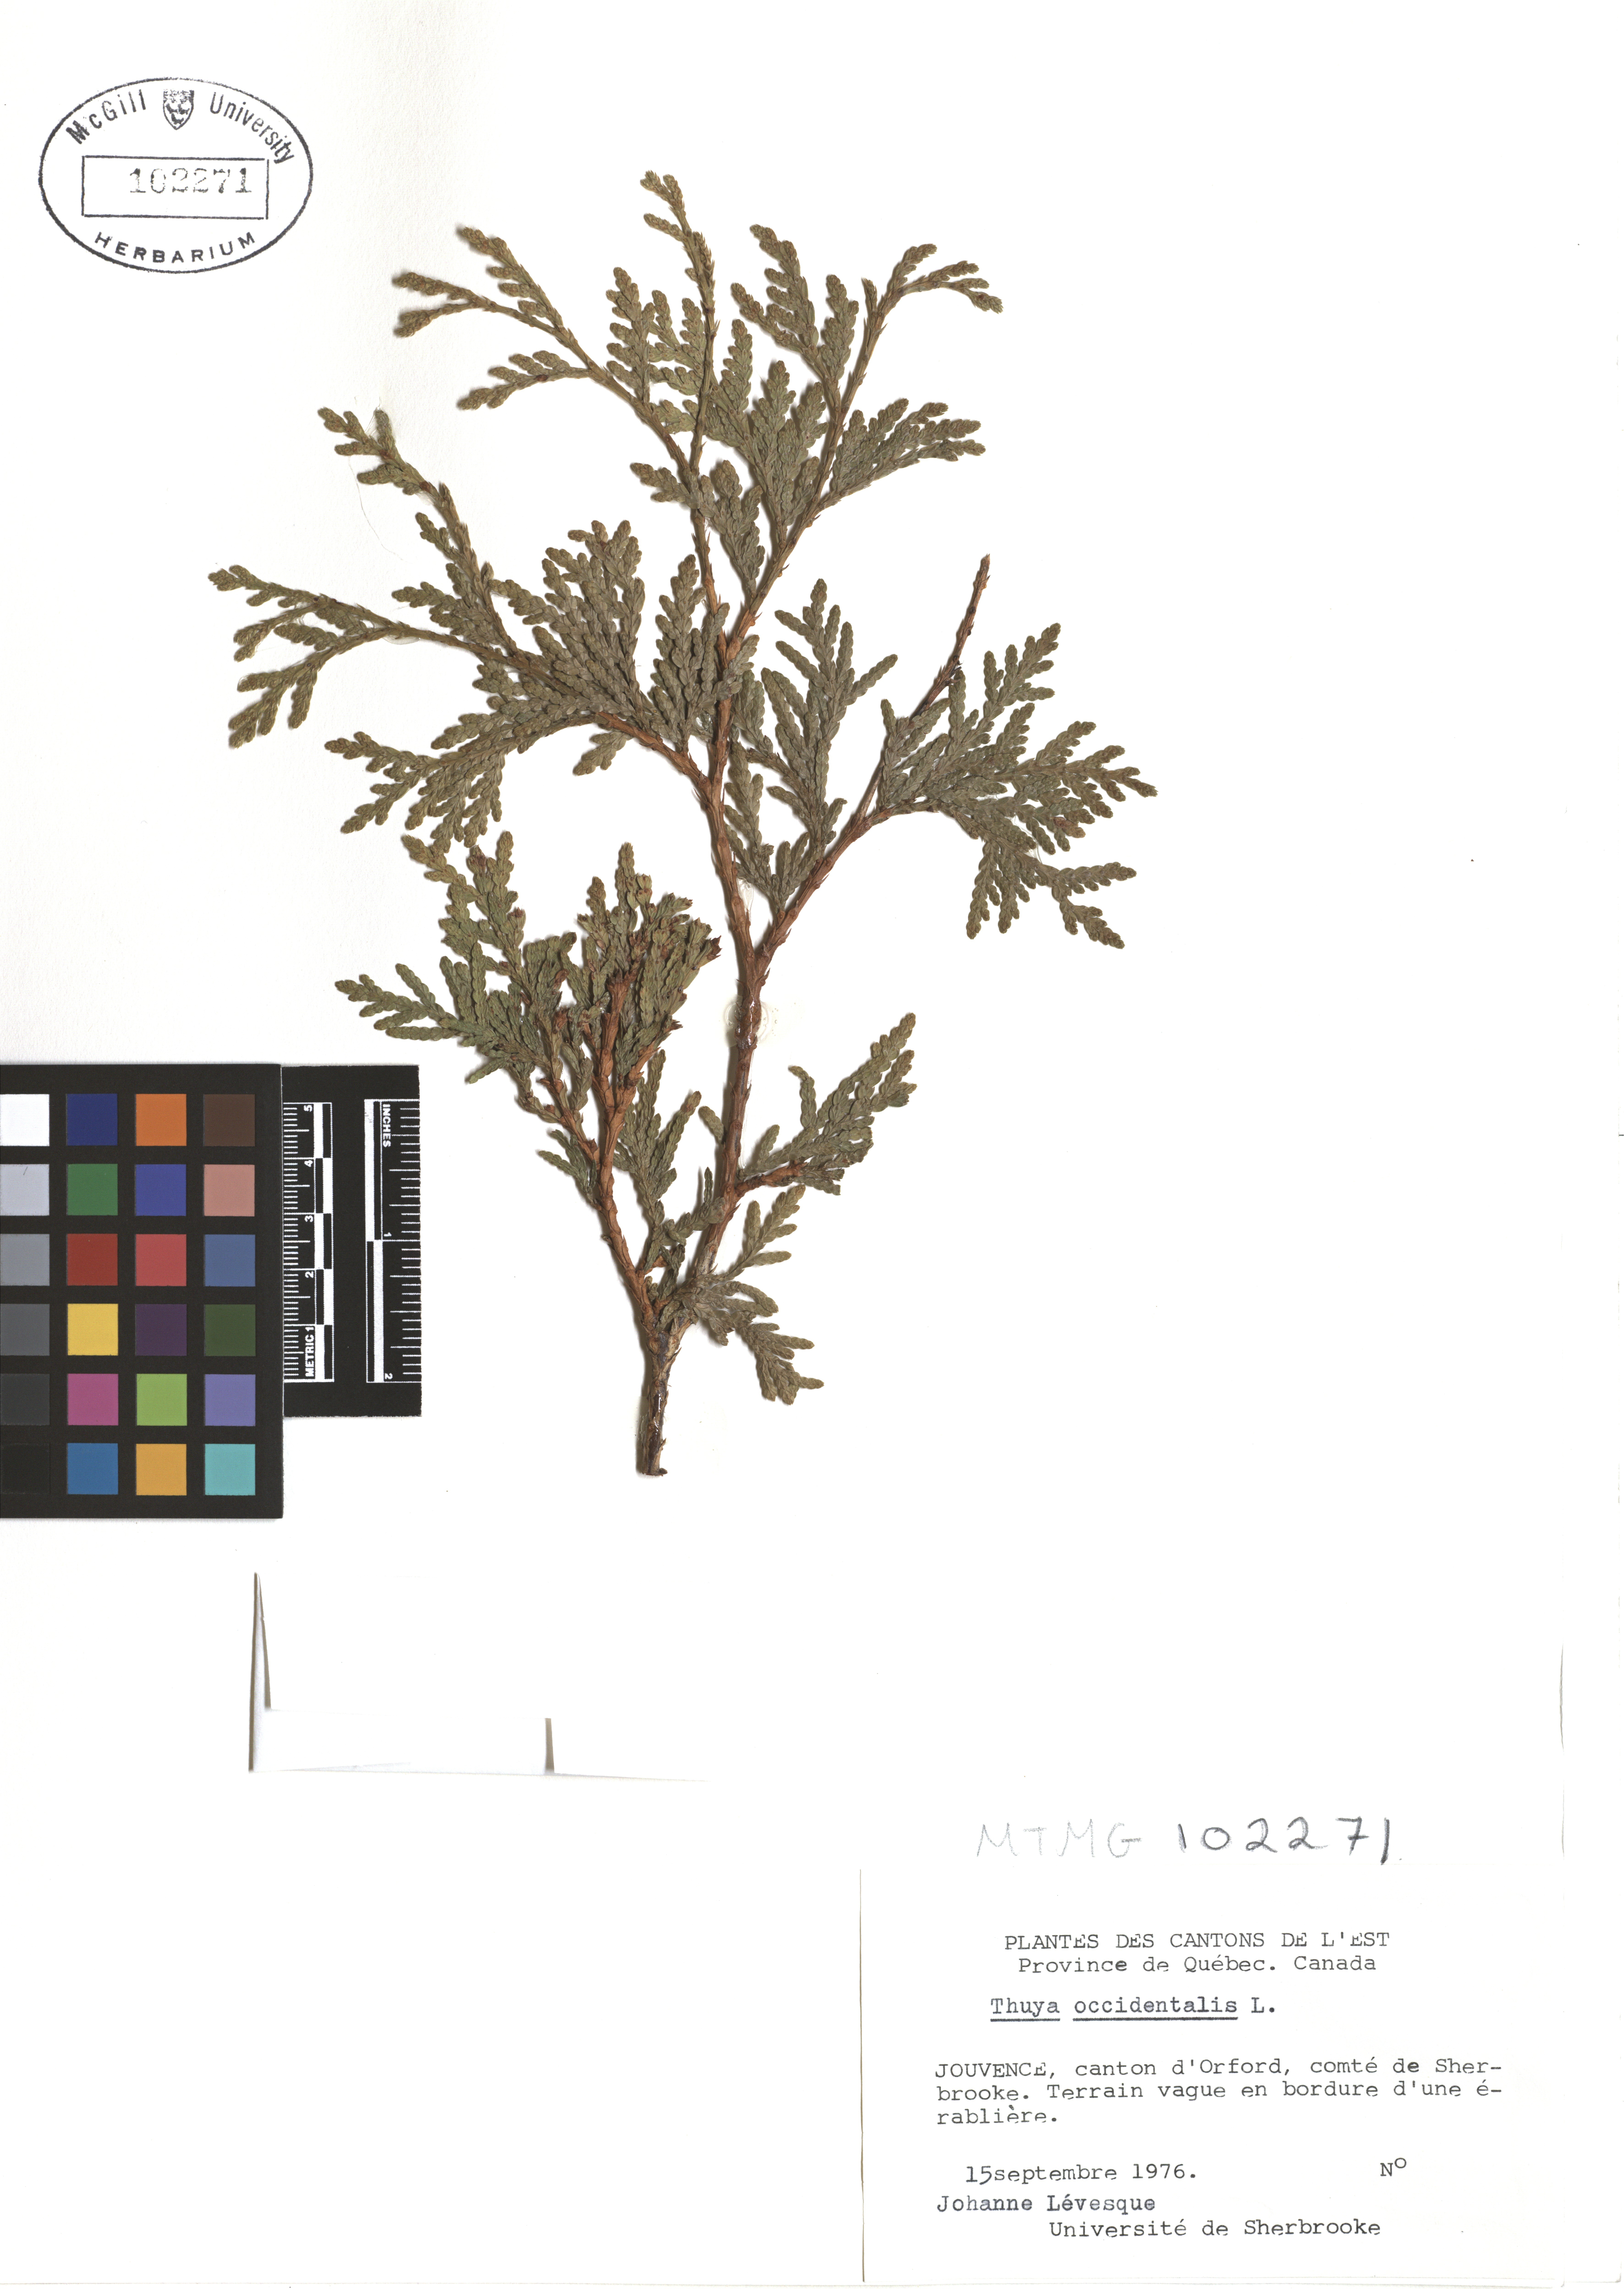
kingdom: Plantae
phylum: Tracheophyta
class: Pinopsida
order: Pinales
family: Cupressaceae
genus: Thuja
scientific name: Thuja occidentalis
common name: Northern white-cedar
